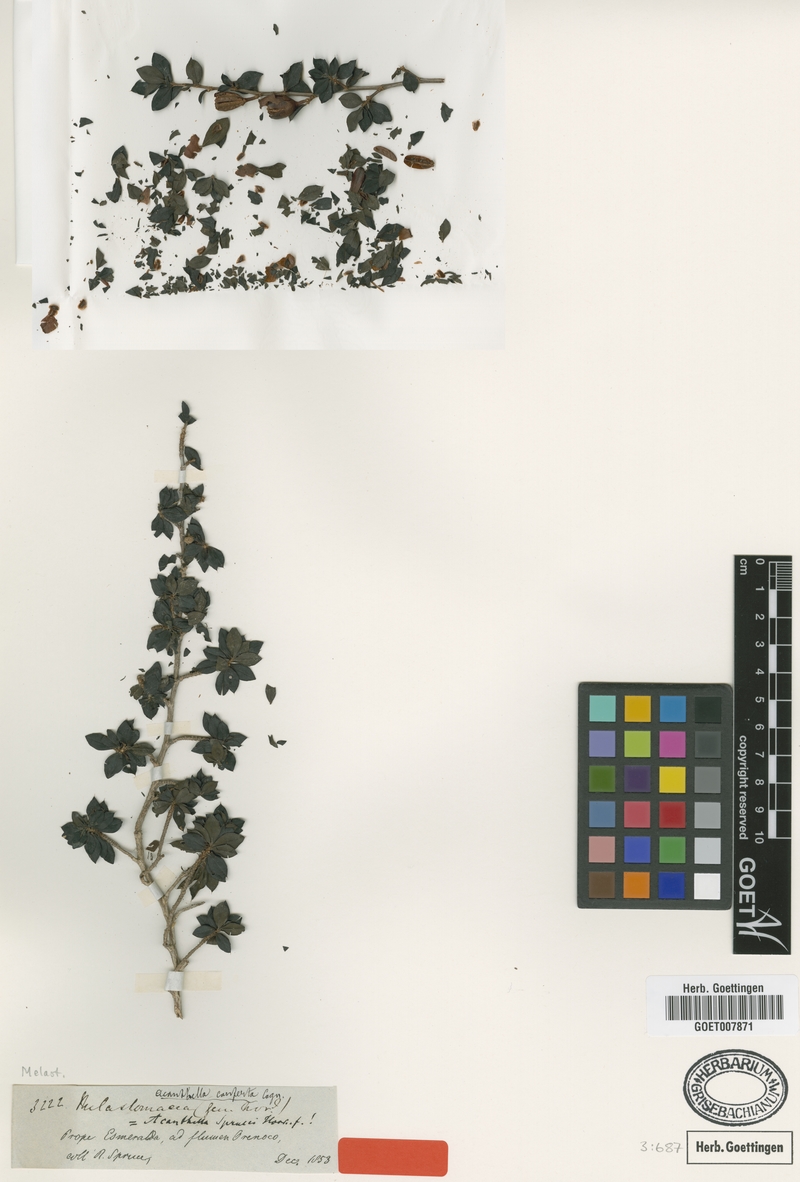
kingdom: Plantae
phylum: Tracheophyta
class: Magnoliopsida
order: Myrtales
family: Melastomataceae
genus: Acanthella
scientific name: Acanthella conferta
